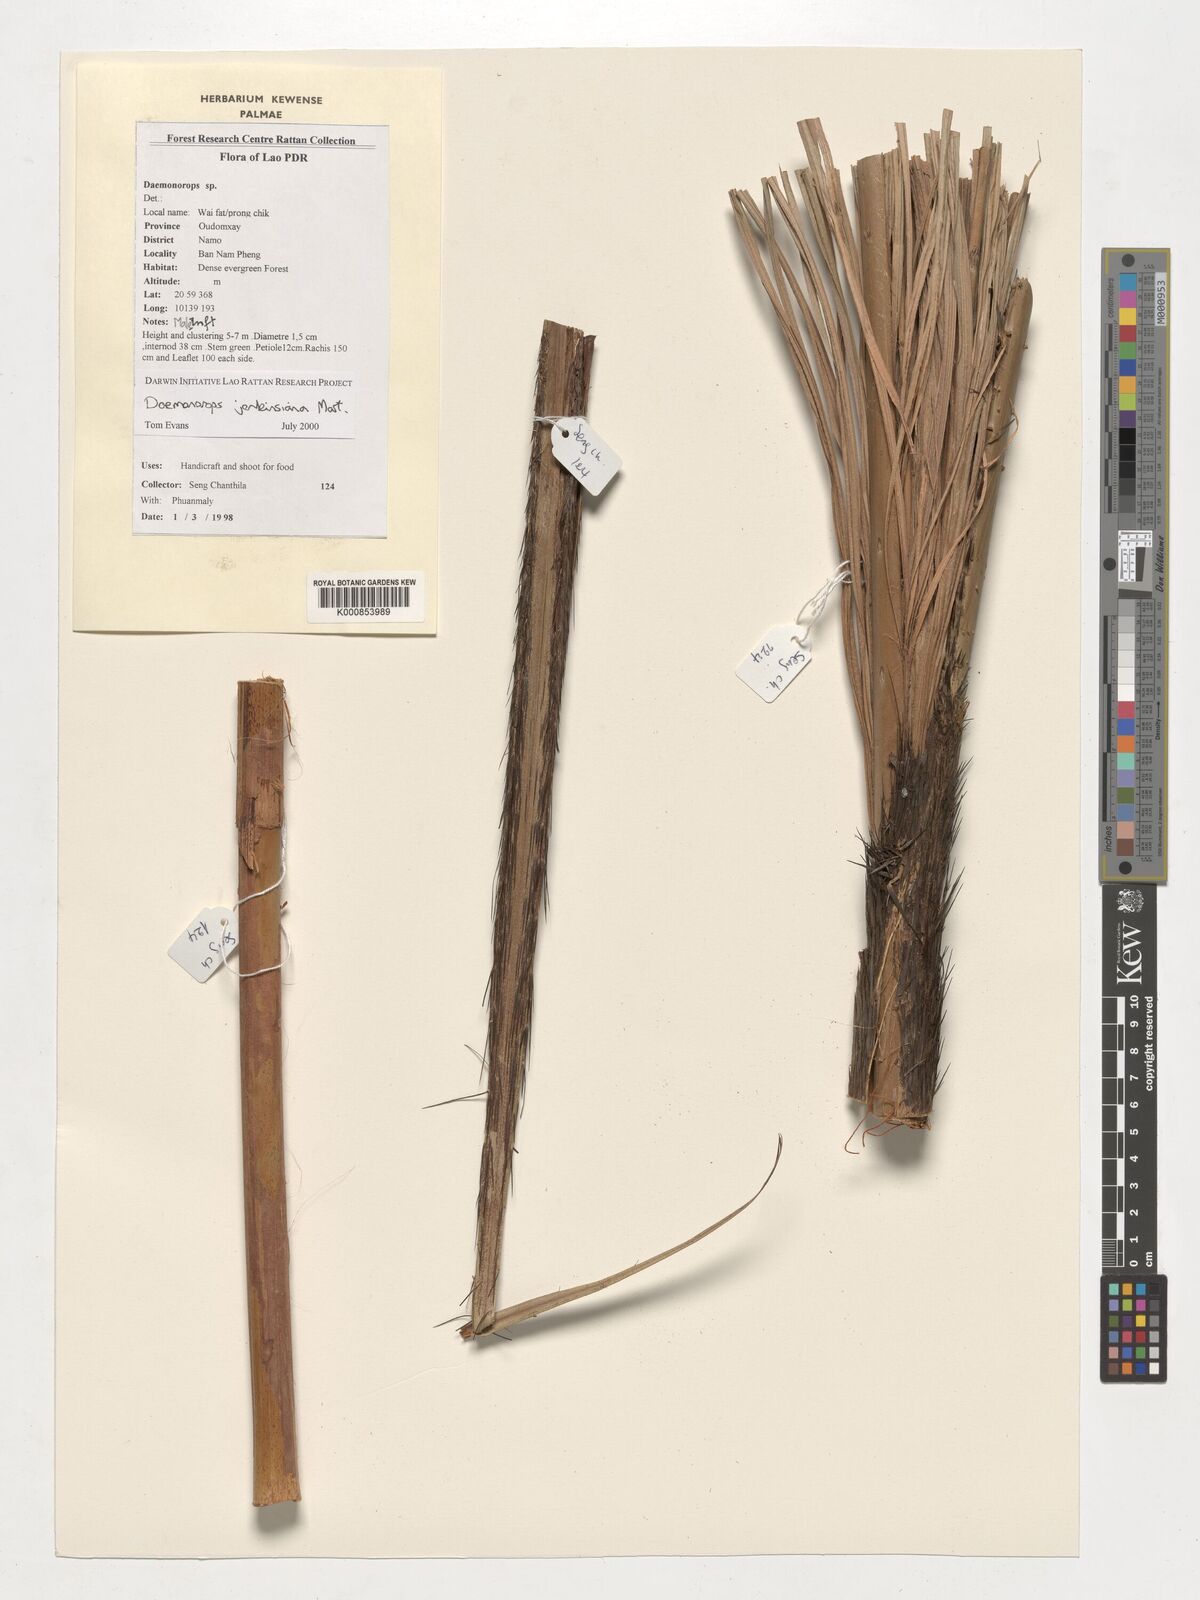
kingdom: Plantae
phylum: Tracheophyta
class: Liliopsida
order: Arecales
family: Arecaceae
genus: Calamus
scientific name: Calamus melanochaetes
